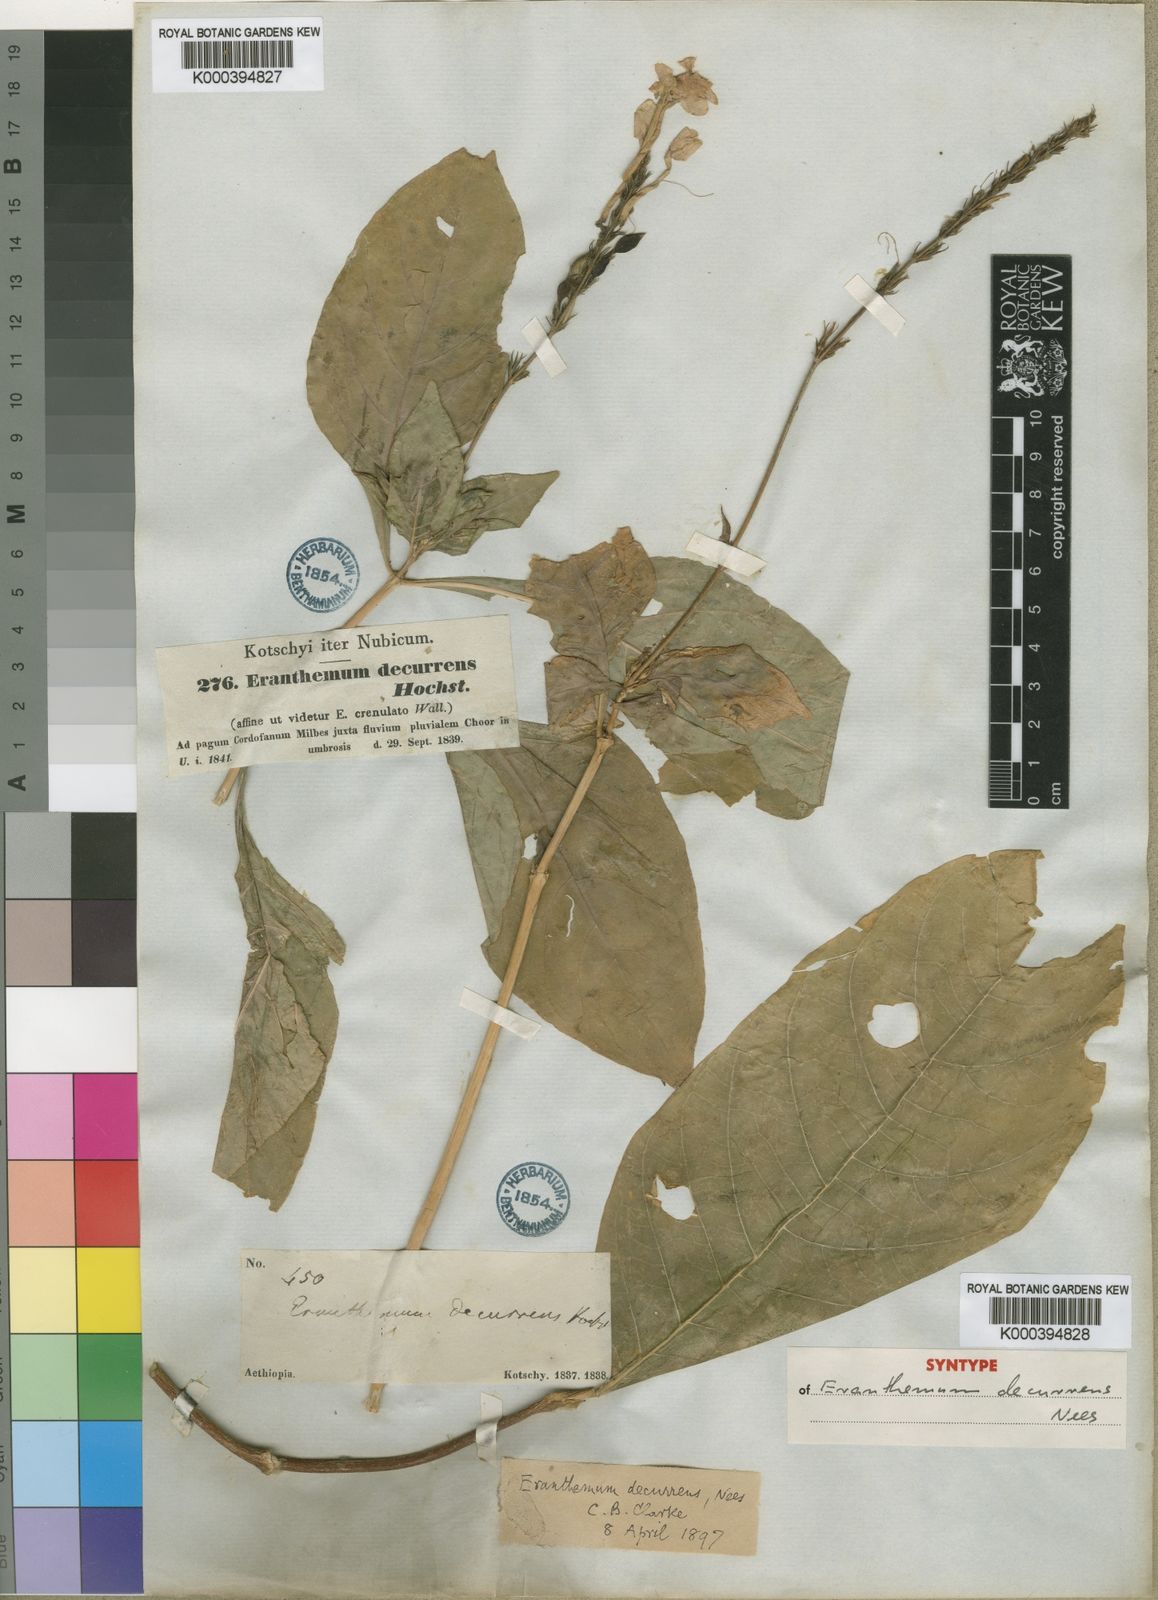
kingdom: Plantae
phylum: Tracheophyta
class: Magnoliopsida
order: Lamiales
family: Acanthaceae
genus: Ruspolia
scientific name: Ruspolia decurrens
